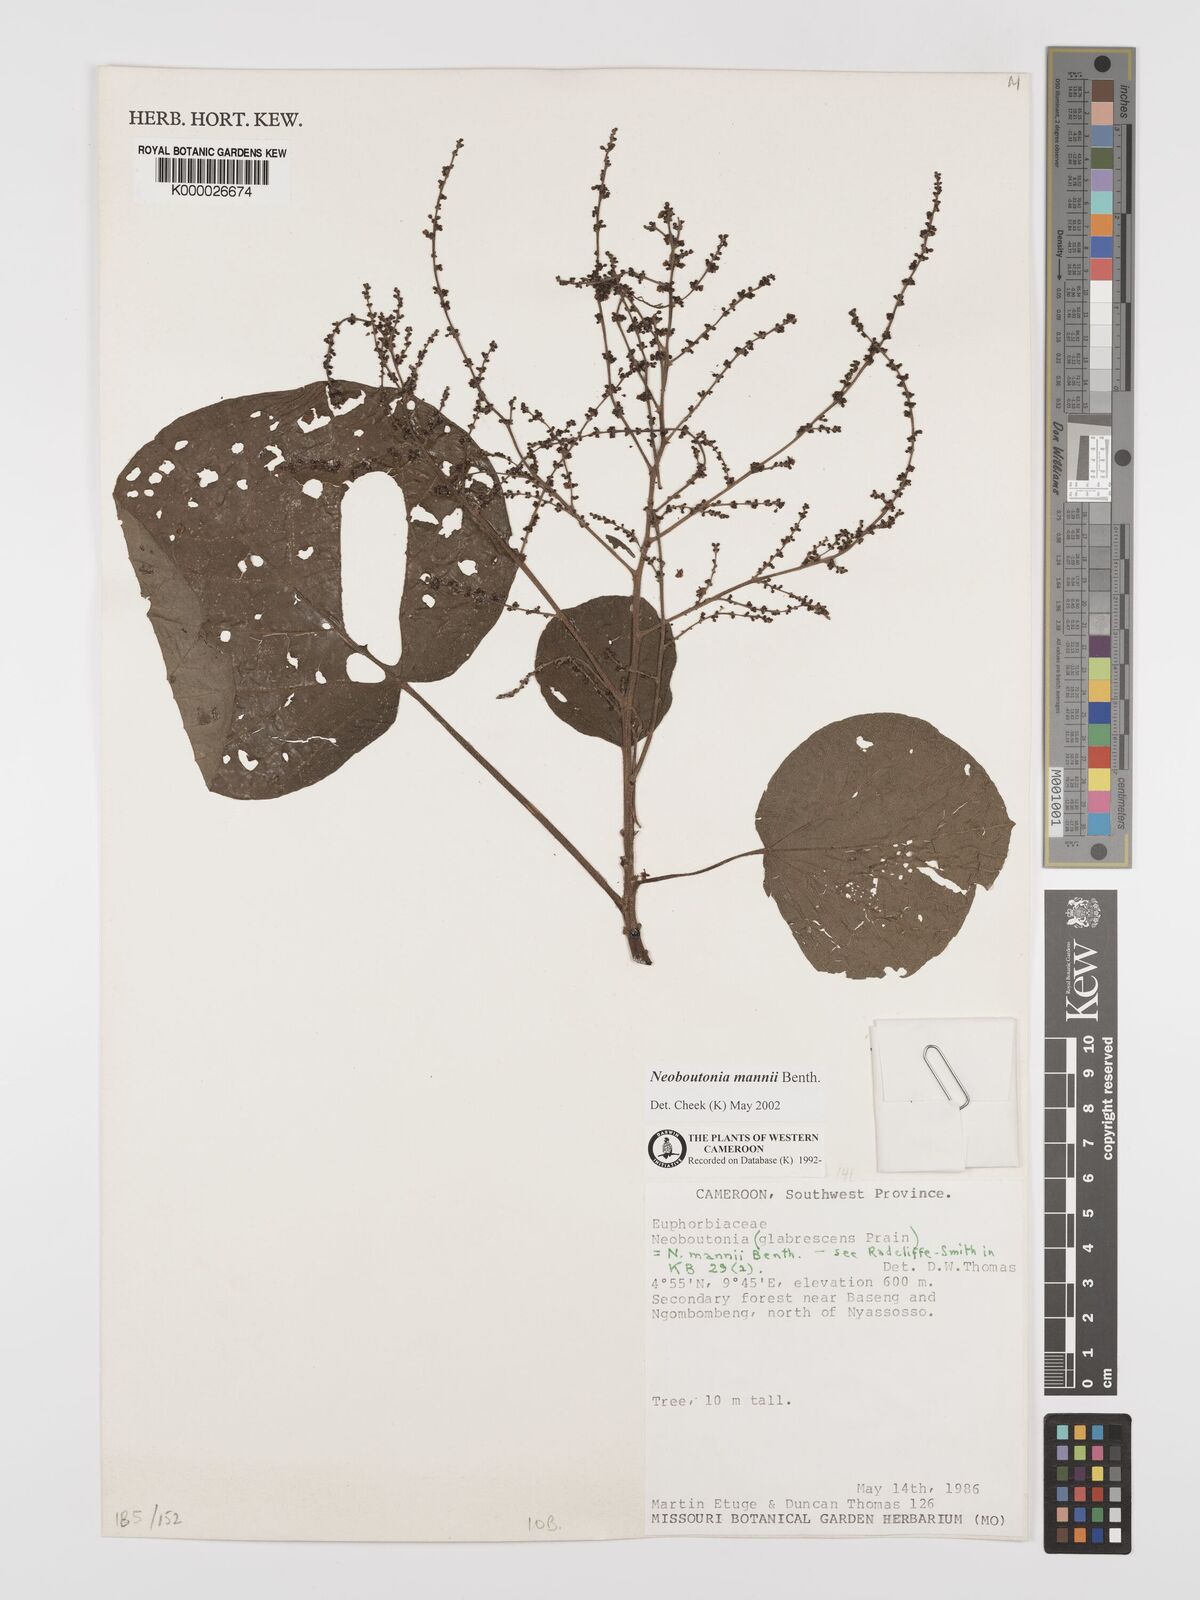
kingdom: Plantae
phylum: Tracheophyta
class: Magnoliopsida
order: Malpighiales
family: Euphorbiaceae
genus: Neoboutonia
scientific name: Neoboutonia mannii
